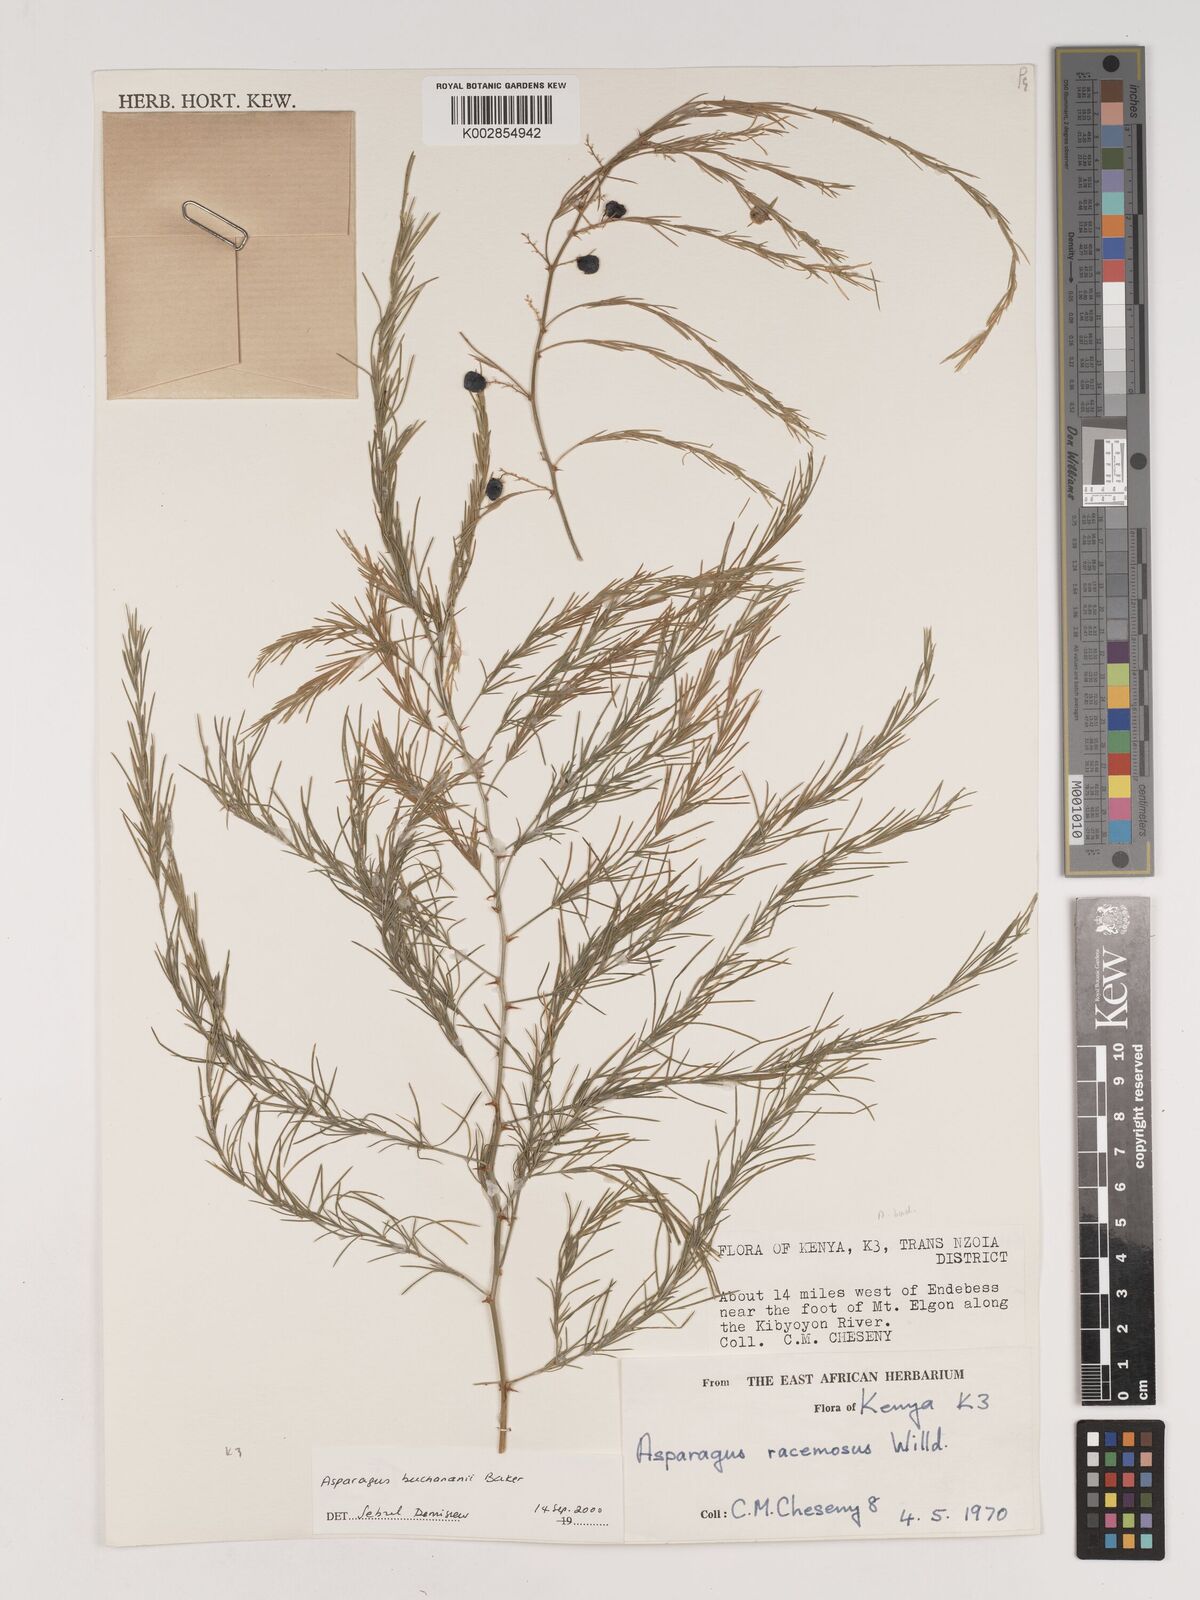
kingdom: Plantae
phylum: Tracheophyta
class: Liliopsida
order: Asparagales
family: Asparagaceae
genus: Asparagus
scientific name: Asparagus buchananii
